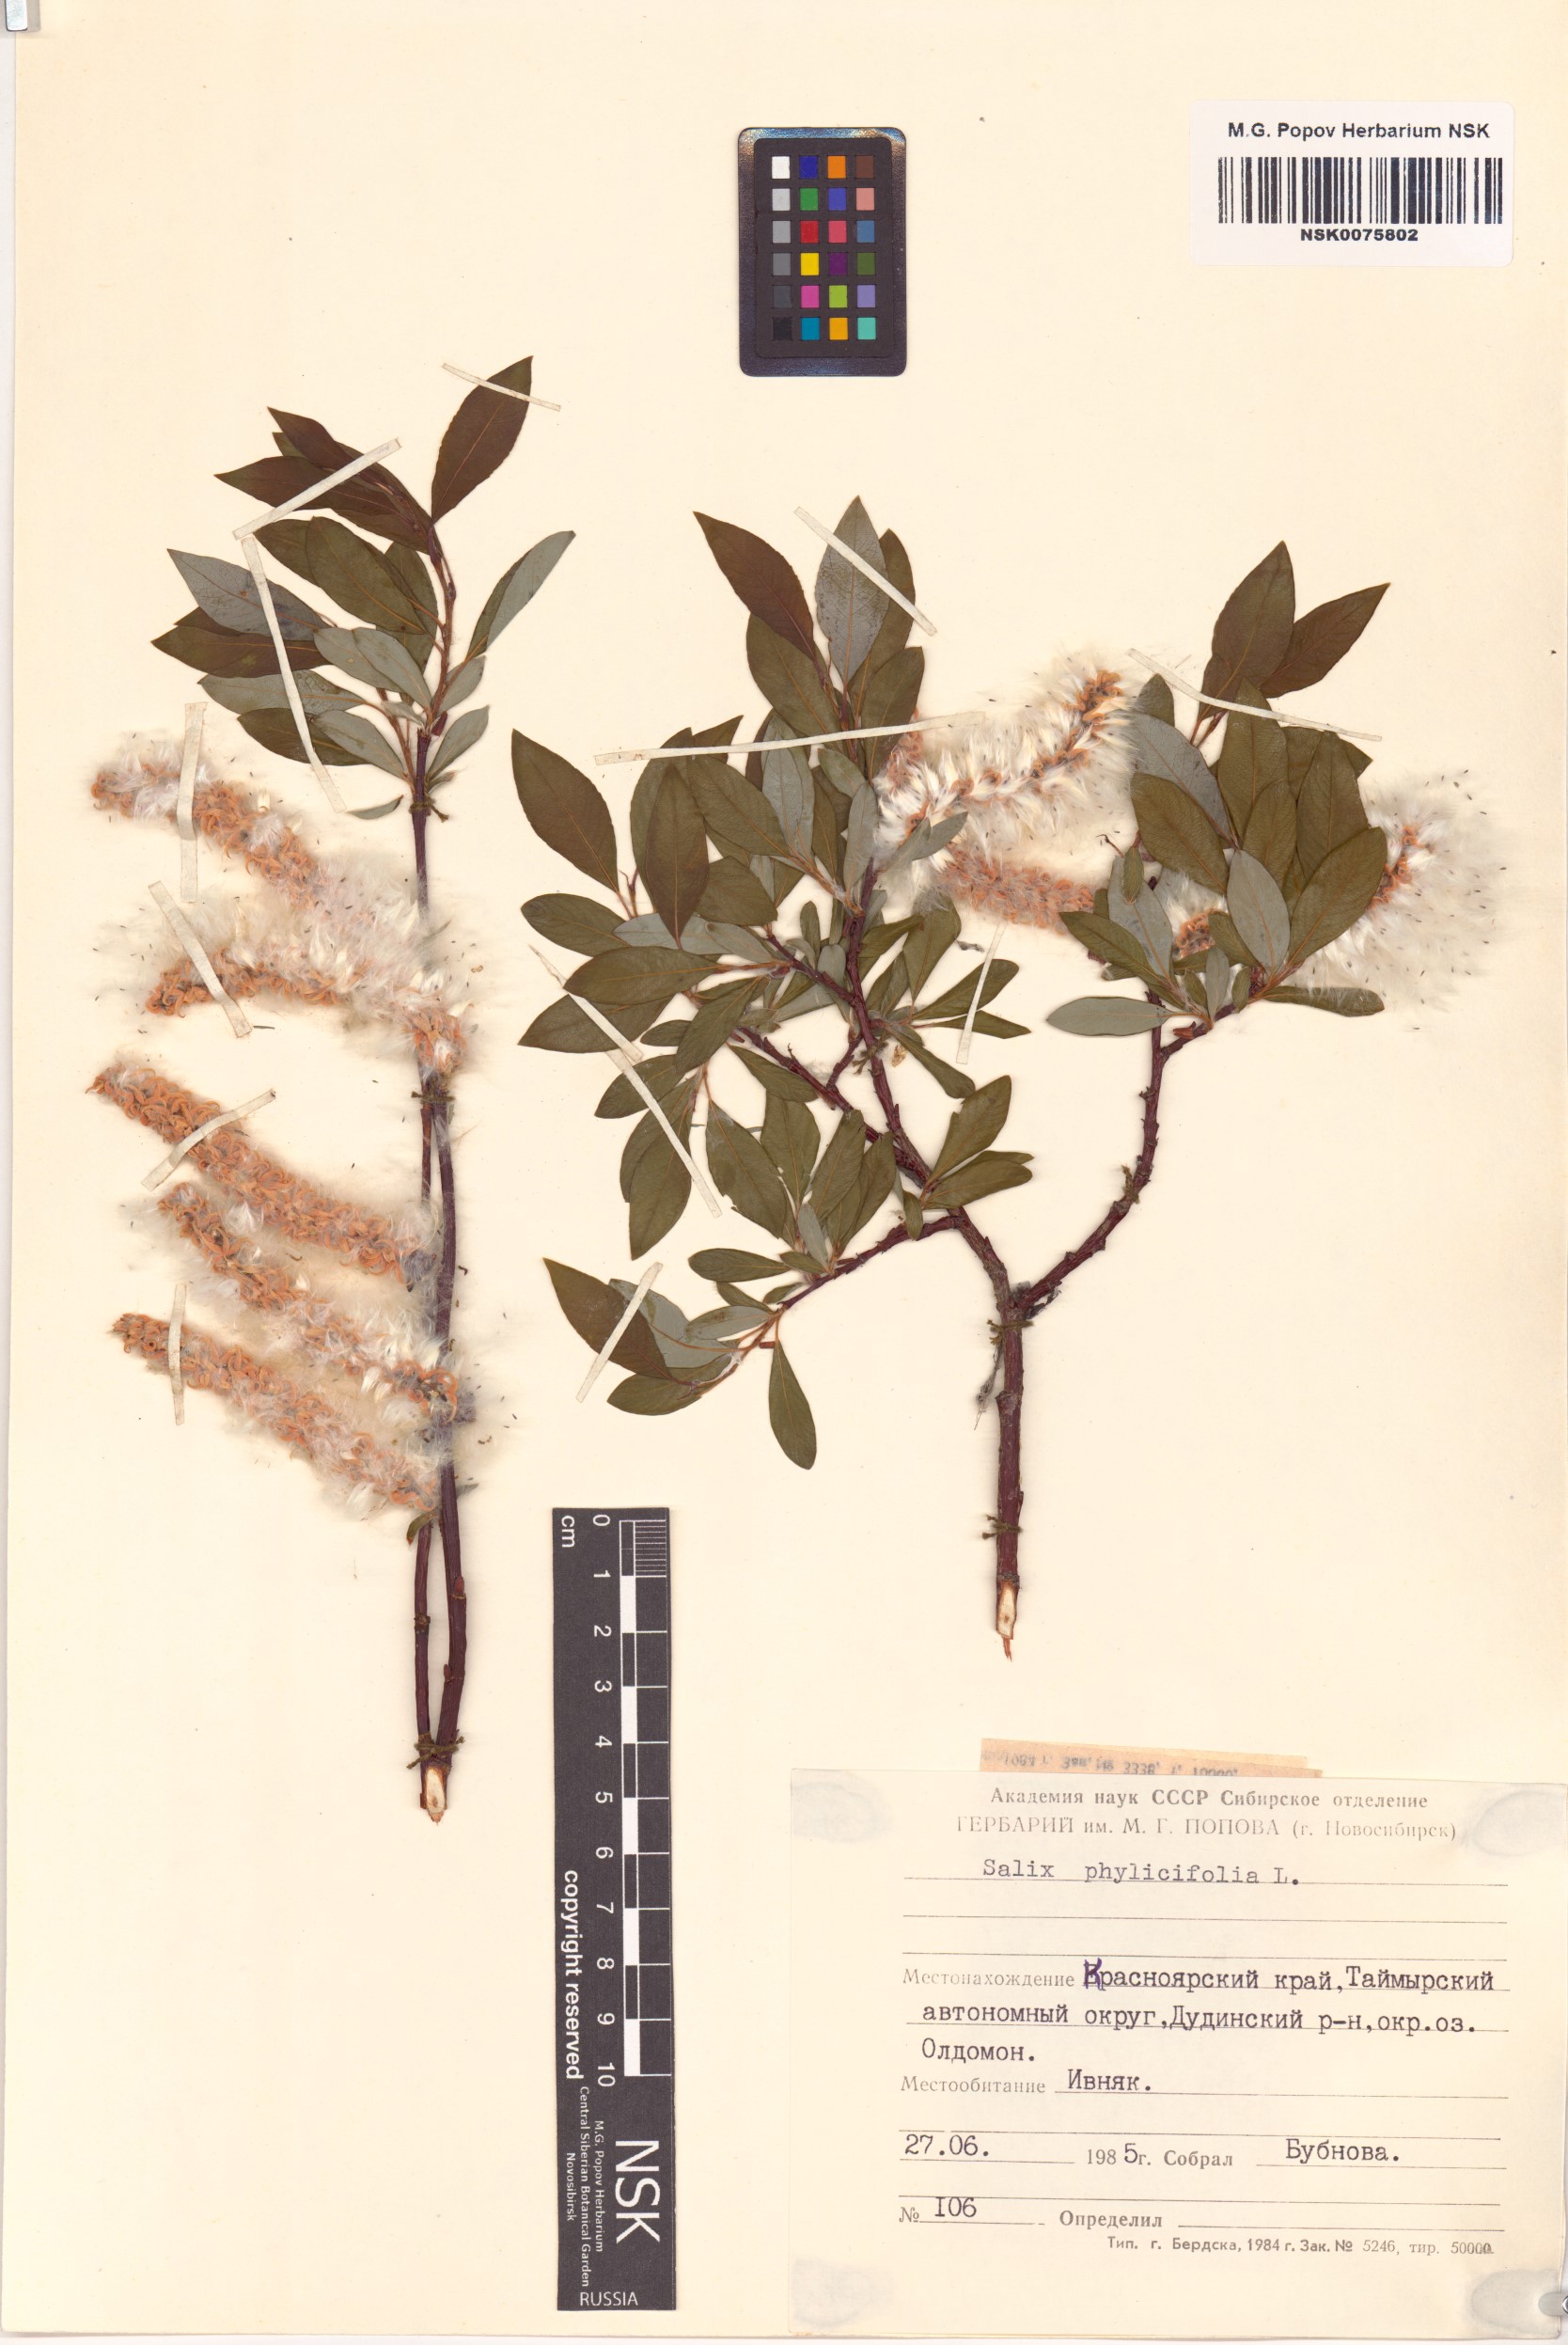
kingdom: Plantae
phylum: Tracheophyta
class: Magnoliopsida
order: Malpighiales
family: Salicaceae
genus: Salix
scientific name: Salix phylicifolia
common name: Tea-leaved willow
